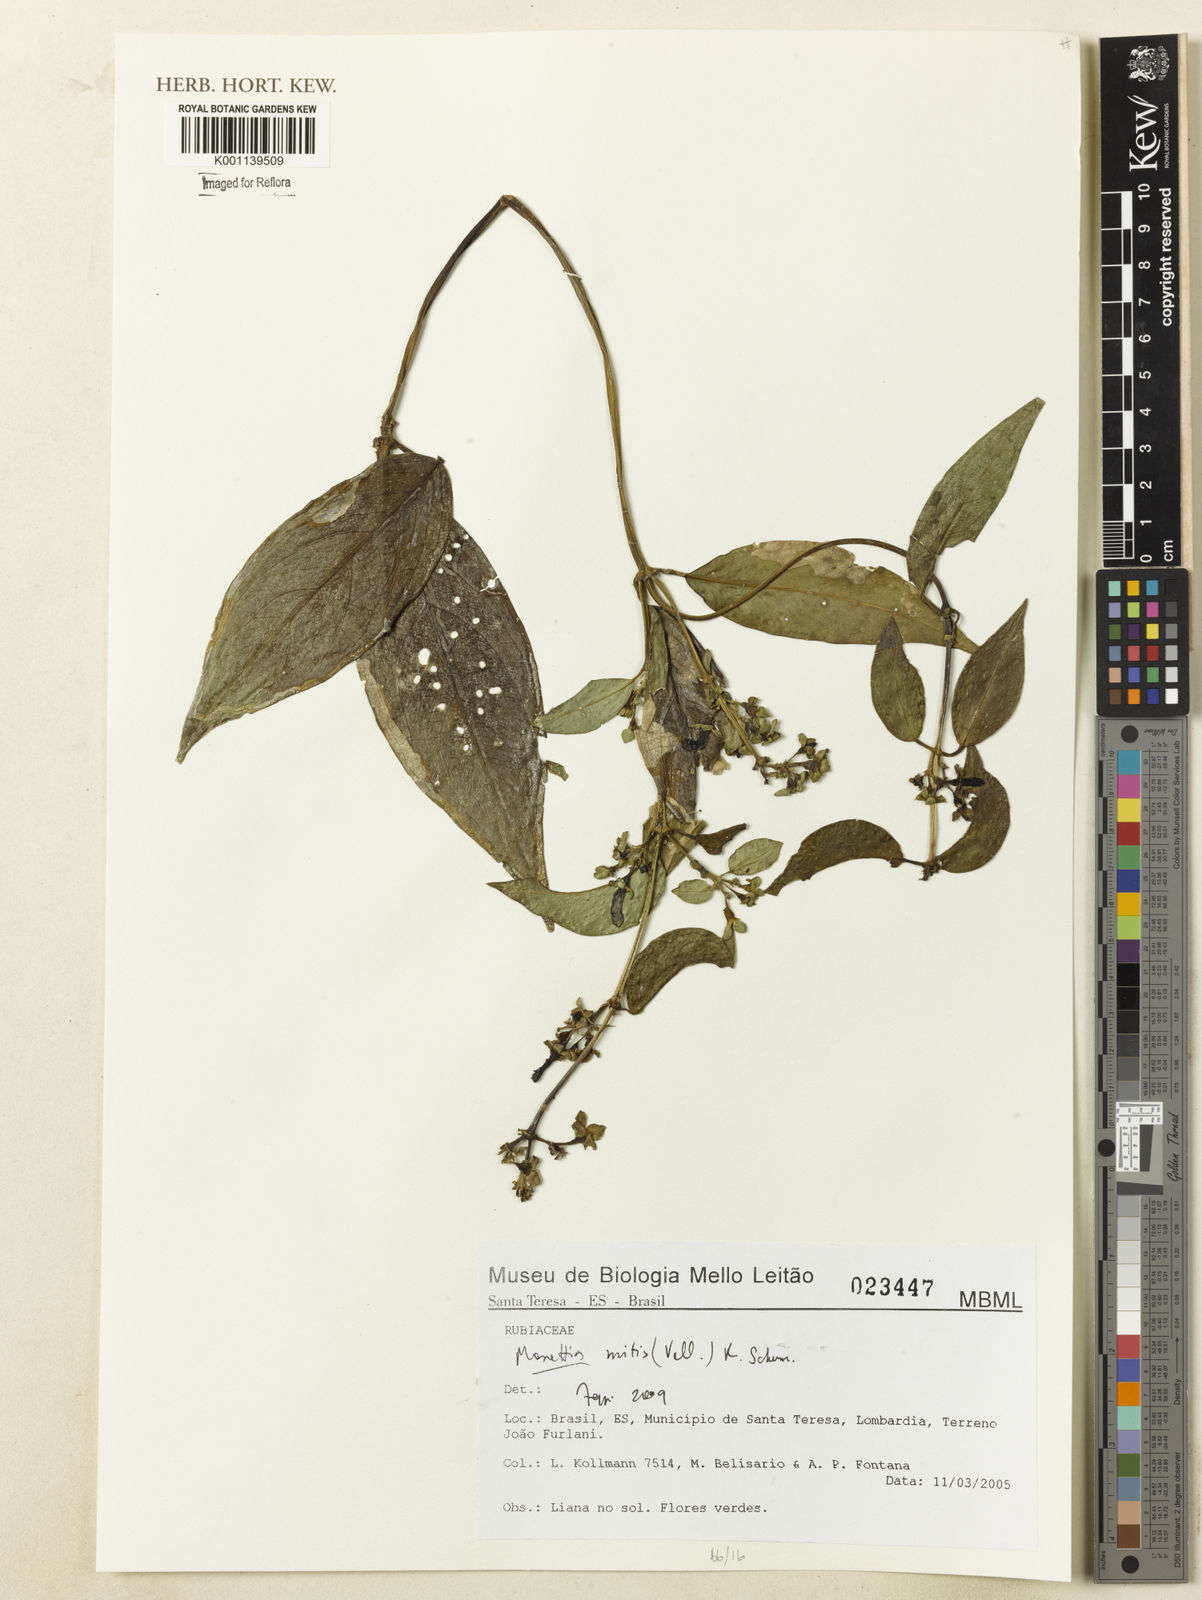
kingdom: Plantae
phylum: Tracheophyta
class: Magnoliopsida
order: Gentianales
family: Rubiaceae
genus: Manettia
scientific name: Manettia mitis
